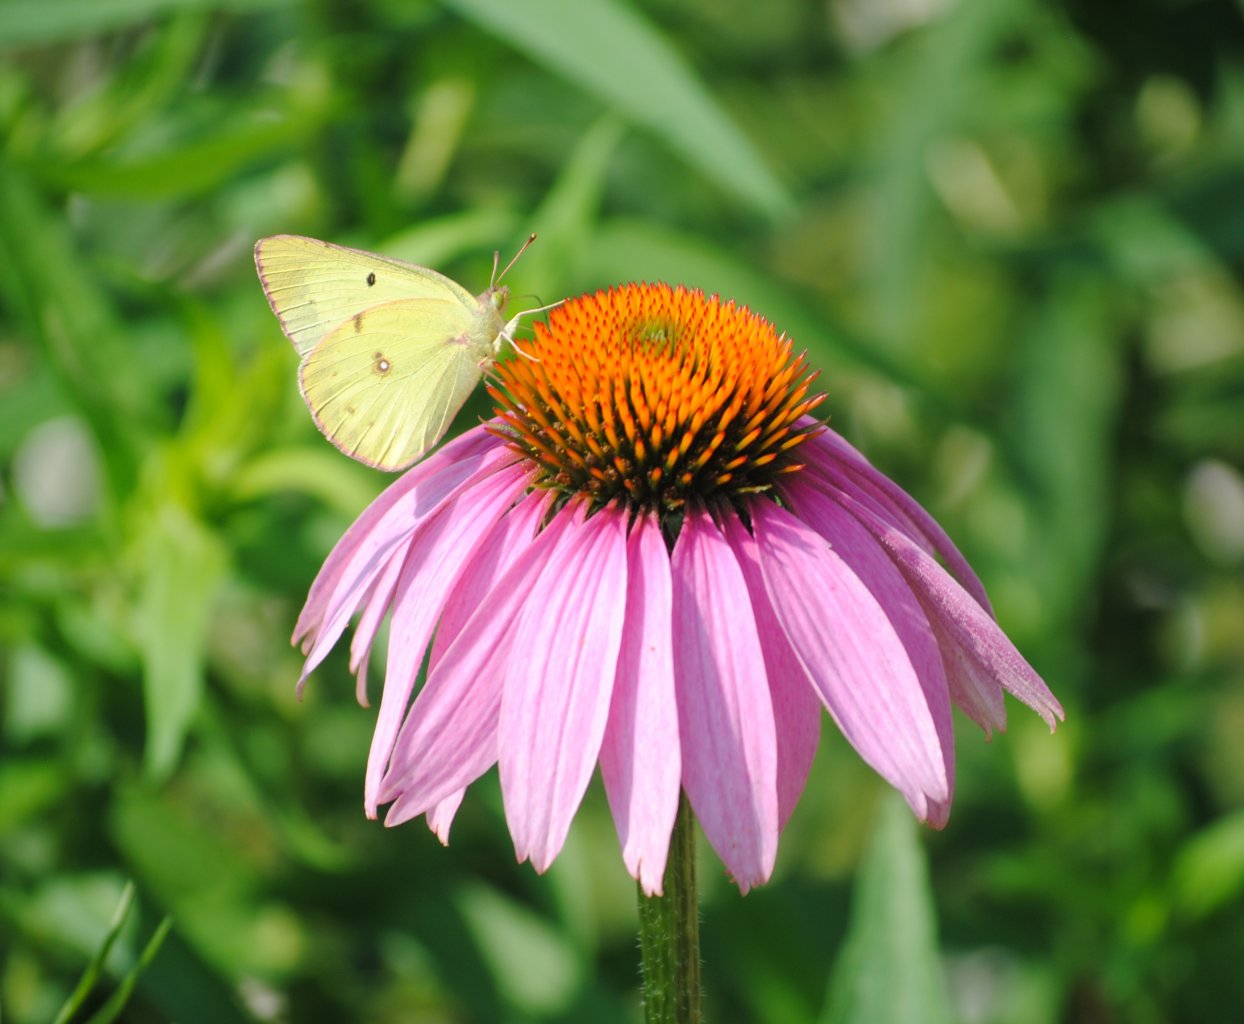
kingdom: Animalia
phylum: Arthropoda
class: Insecta
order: Lepidoptera
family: Pieridae
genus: Colias
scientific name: Colias philodice
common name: Clouded Sulphur
